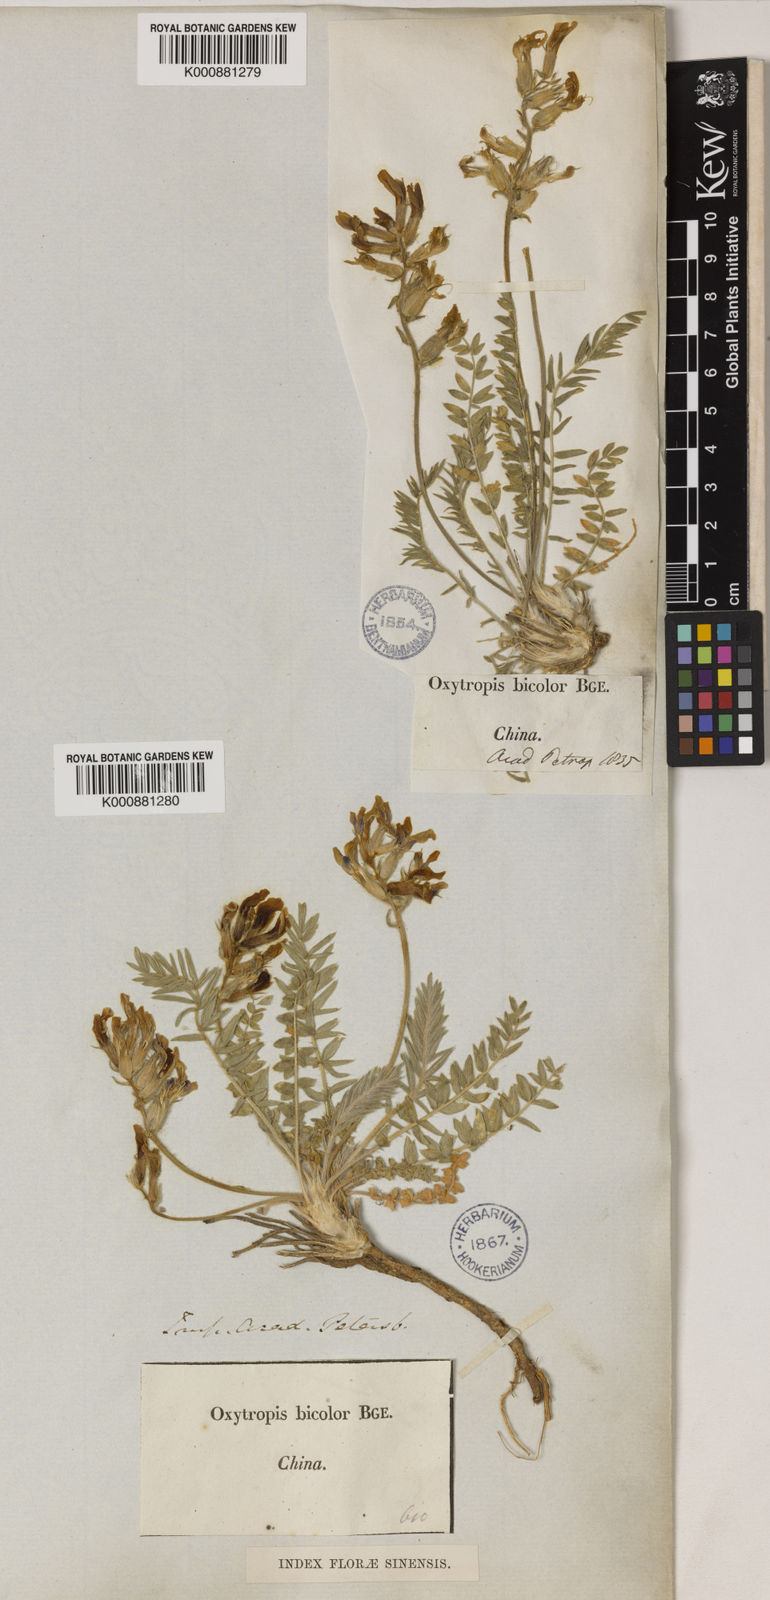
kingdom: Plantae
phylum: Tracheophyta
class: Magnoliopsida
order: Fabales
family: Fabaceae
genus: Oxytropis
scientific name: Oxytropis bicolor
